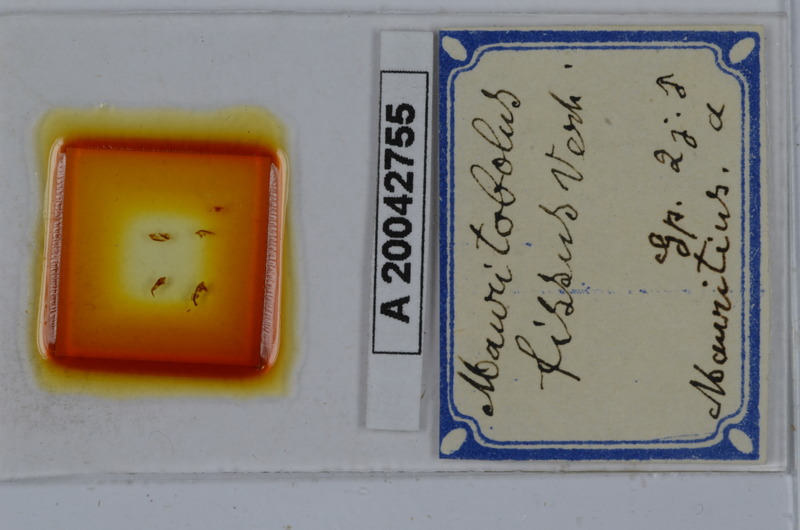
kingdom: Animalia
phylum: Arthropoda
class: Diplopoda
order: Spirobolida
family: Spirobolellidae
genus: Mauritobolus
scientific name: Mauritobolus fissus
